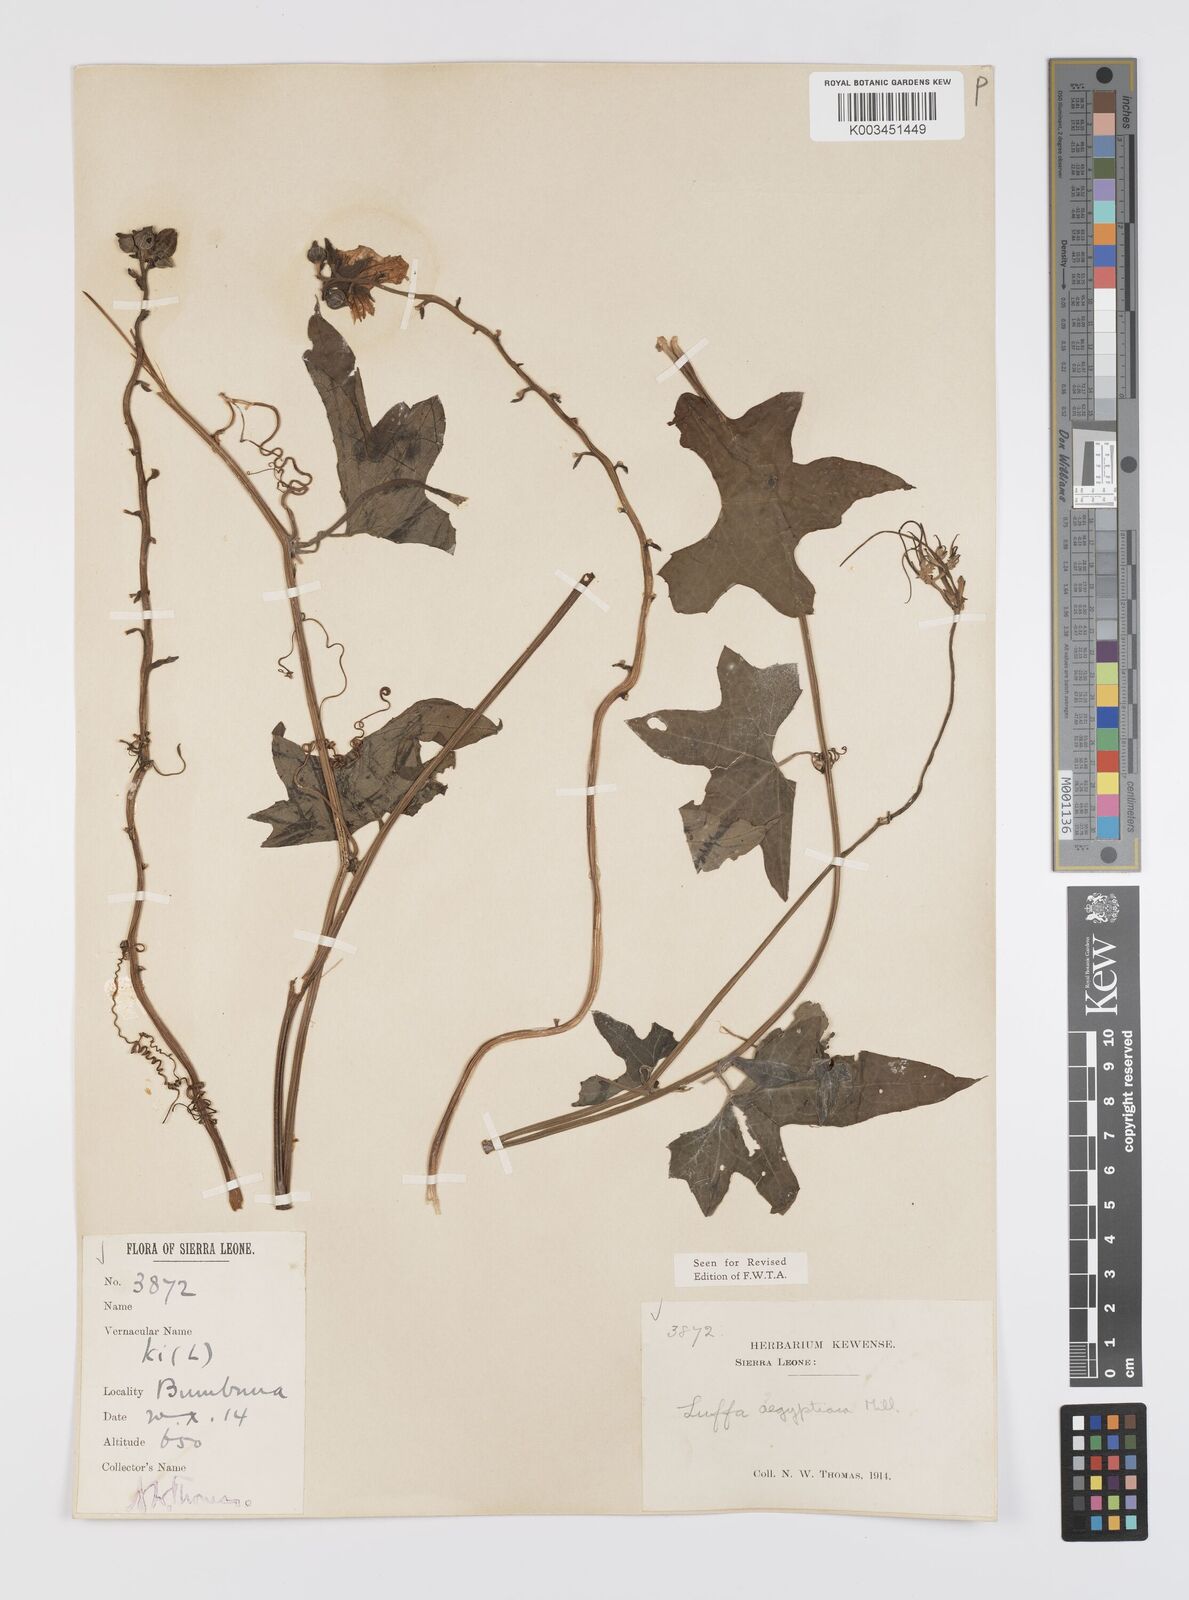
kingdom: Plantae
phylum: Tracheophyta
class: Magnoliopsida
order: Cucurbitales
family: Cucurbitaceae
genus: Luffa
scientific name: Luffa aegyptiaca
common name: Sponge gourd
